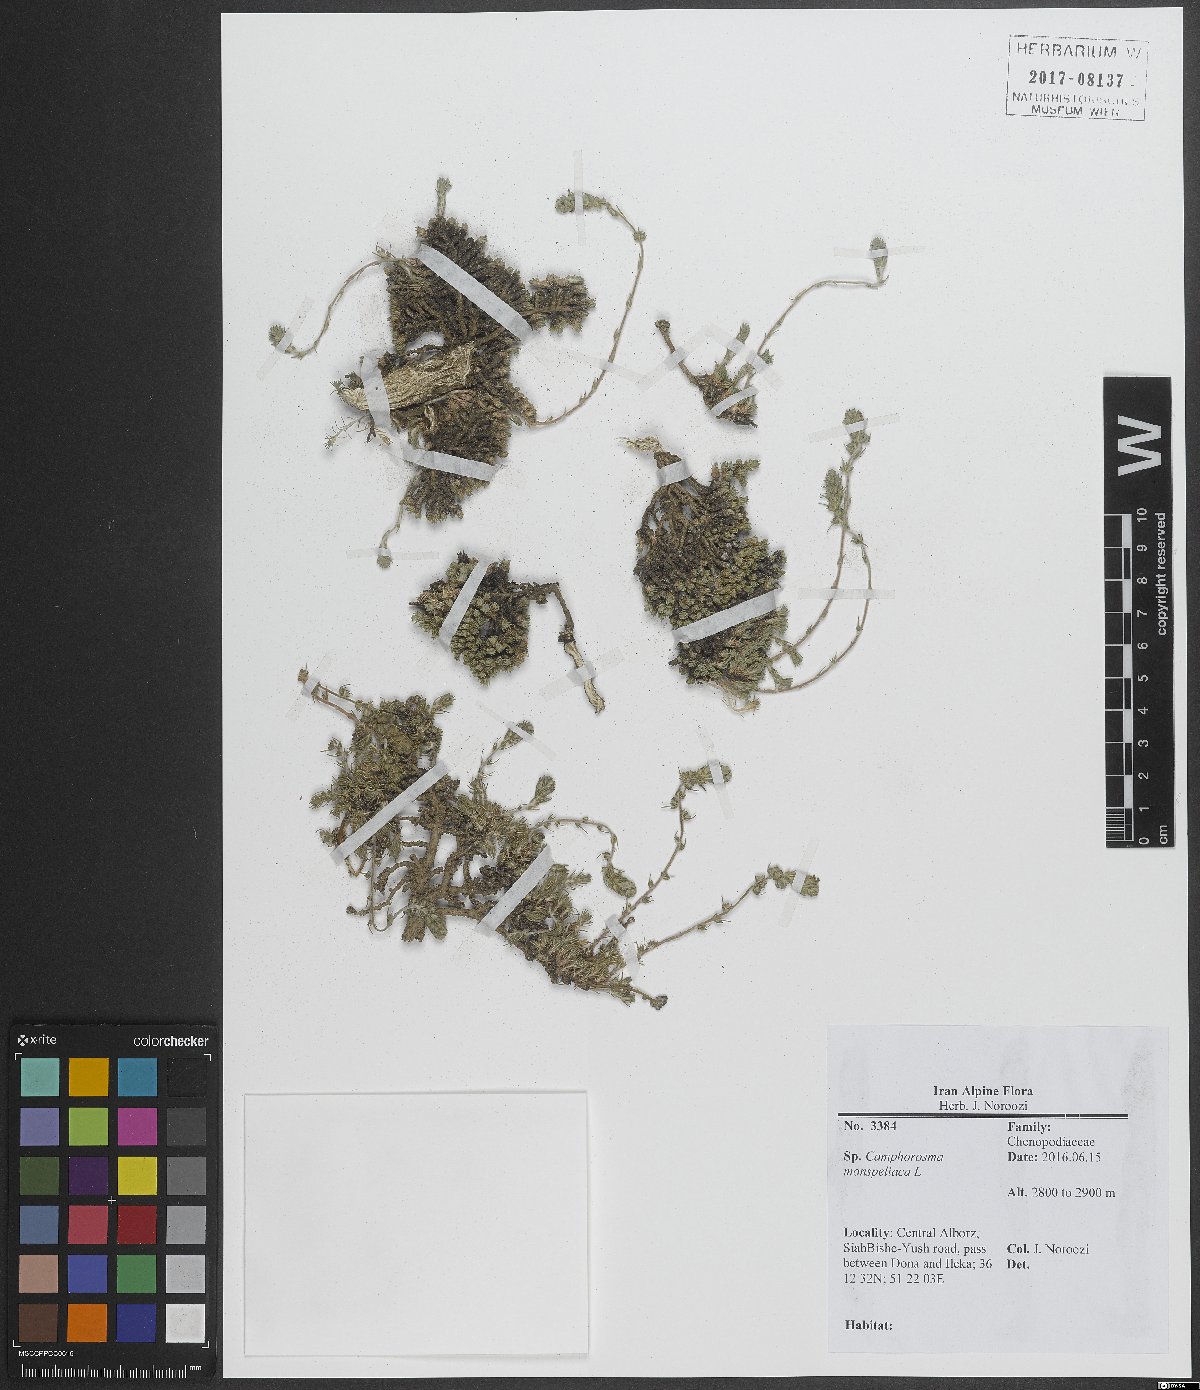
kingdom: Plantae
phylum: Tracheophyta
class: Magnoliopsida
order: Caryophyllales
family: Amaranthaceae
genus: Camphorosma
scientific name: Camphorosma monspeliaca
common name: Camphorfume
